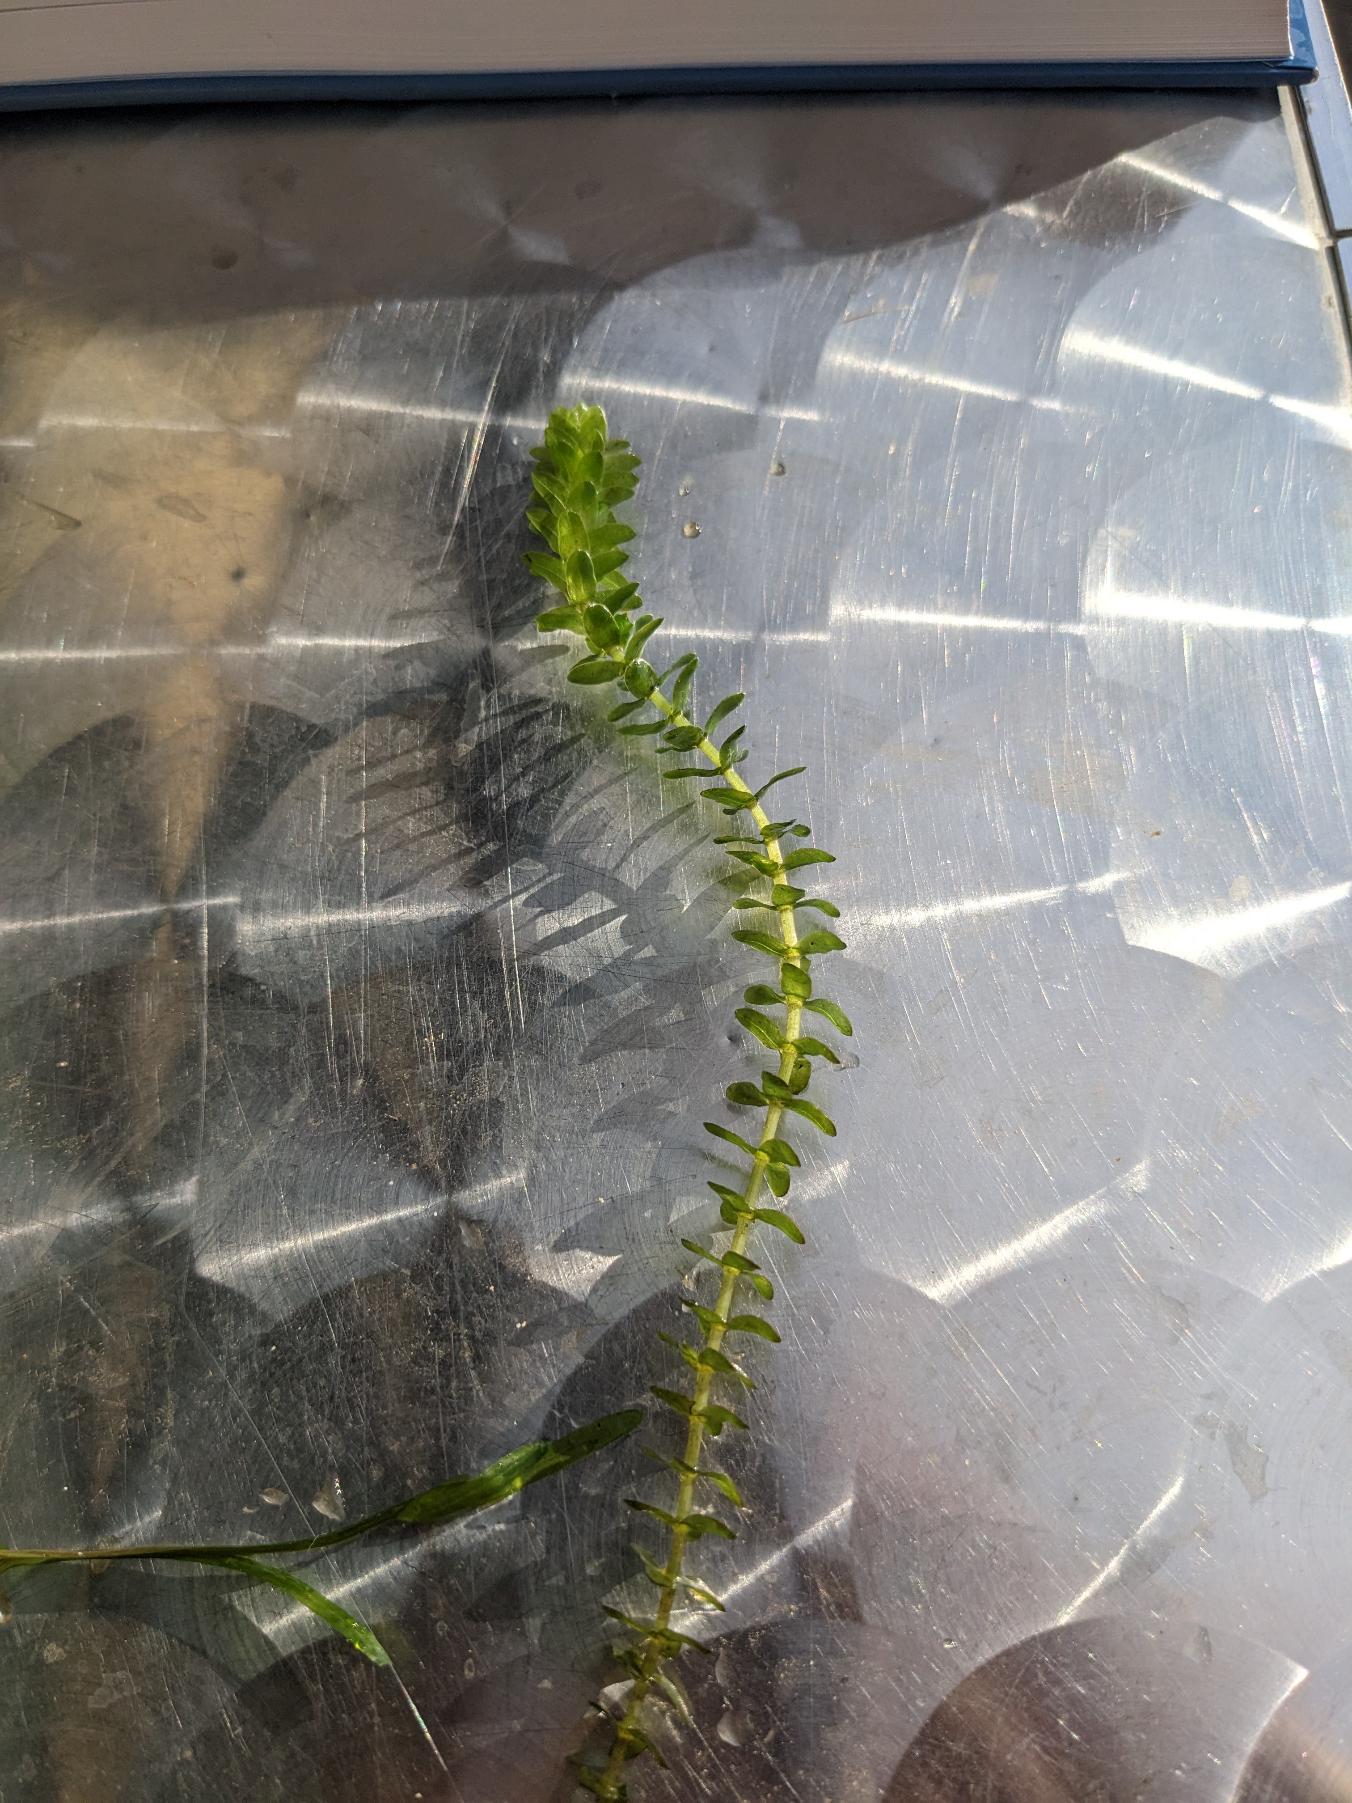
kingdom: Plantae
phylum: Tracheophyta
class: Liliopsida
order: Alismatales
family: Hydrocharitaceae
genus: Elodea
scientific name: Elodea canadensis
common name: Vandpest
